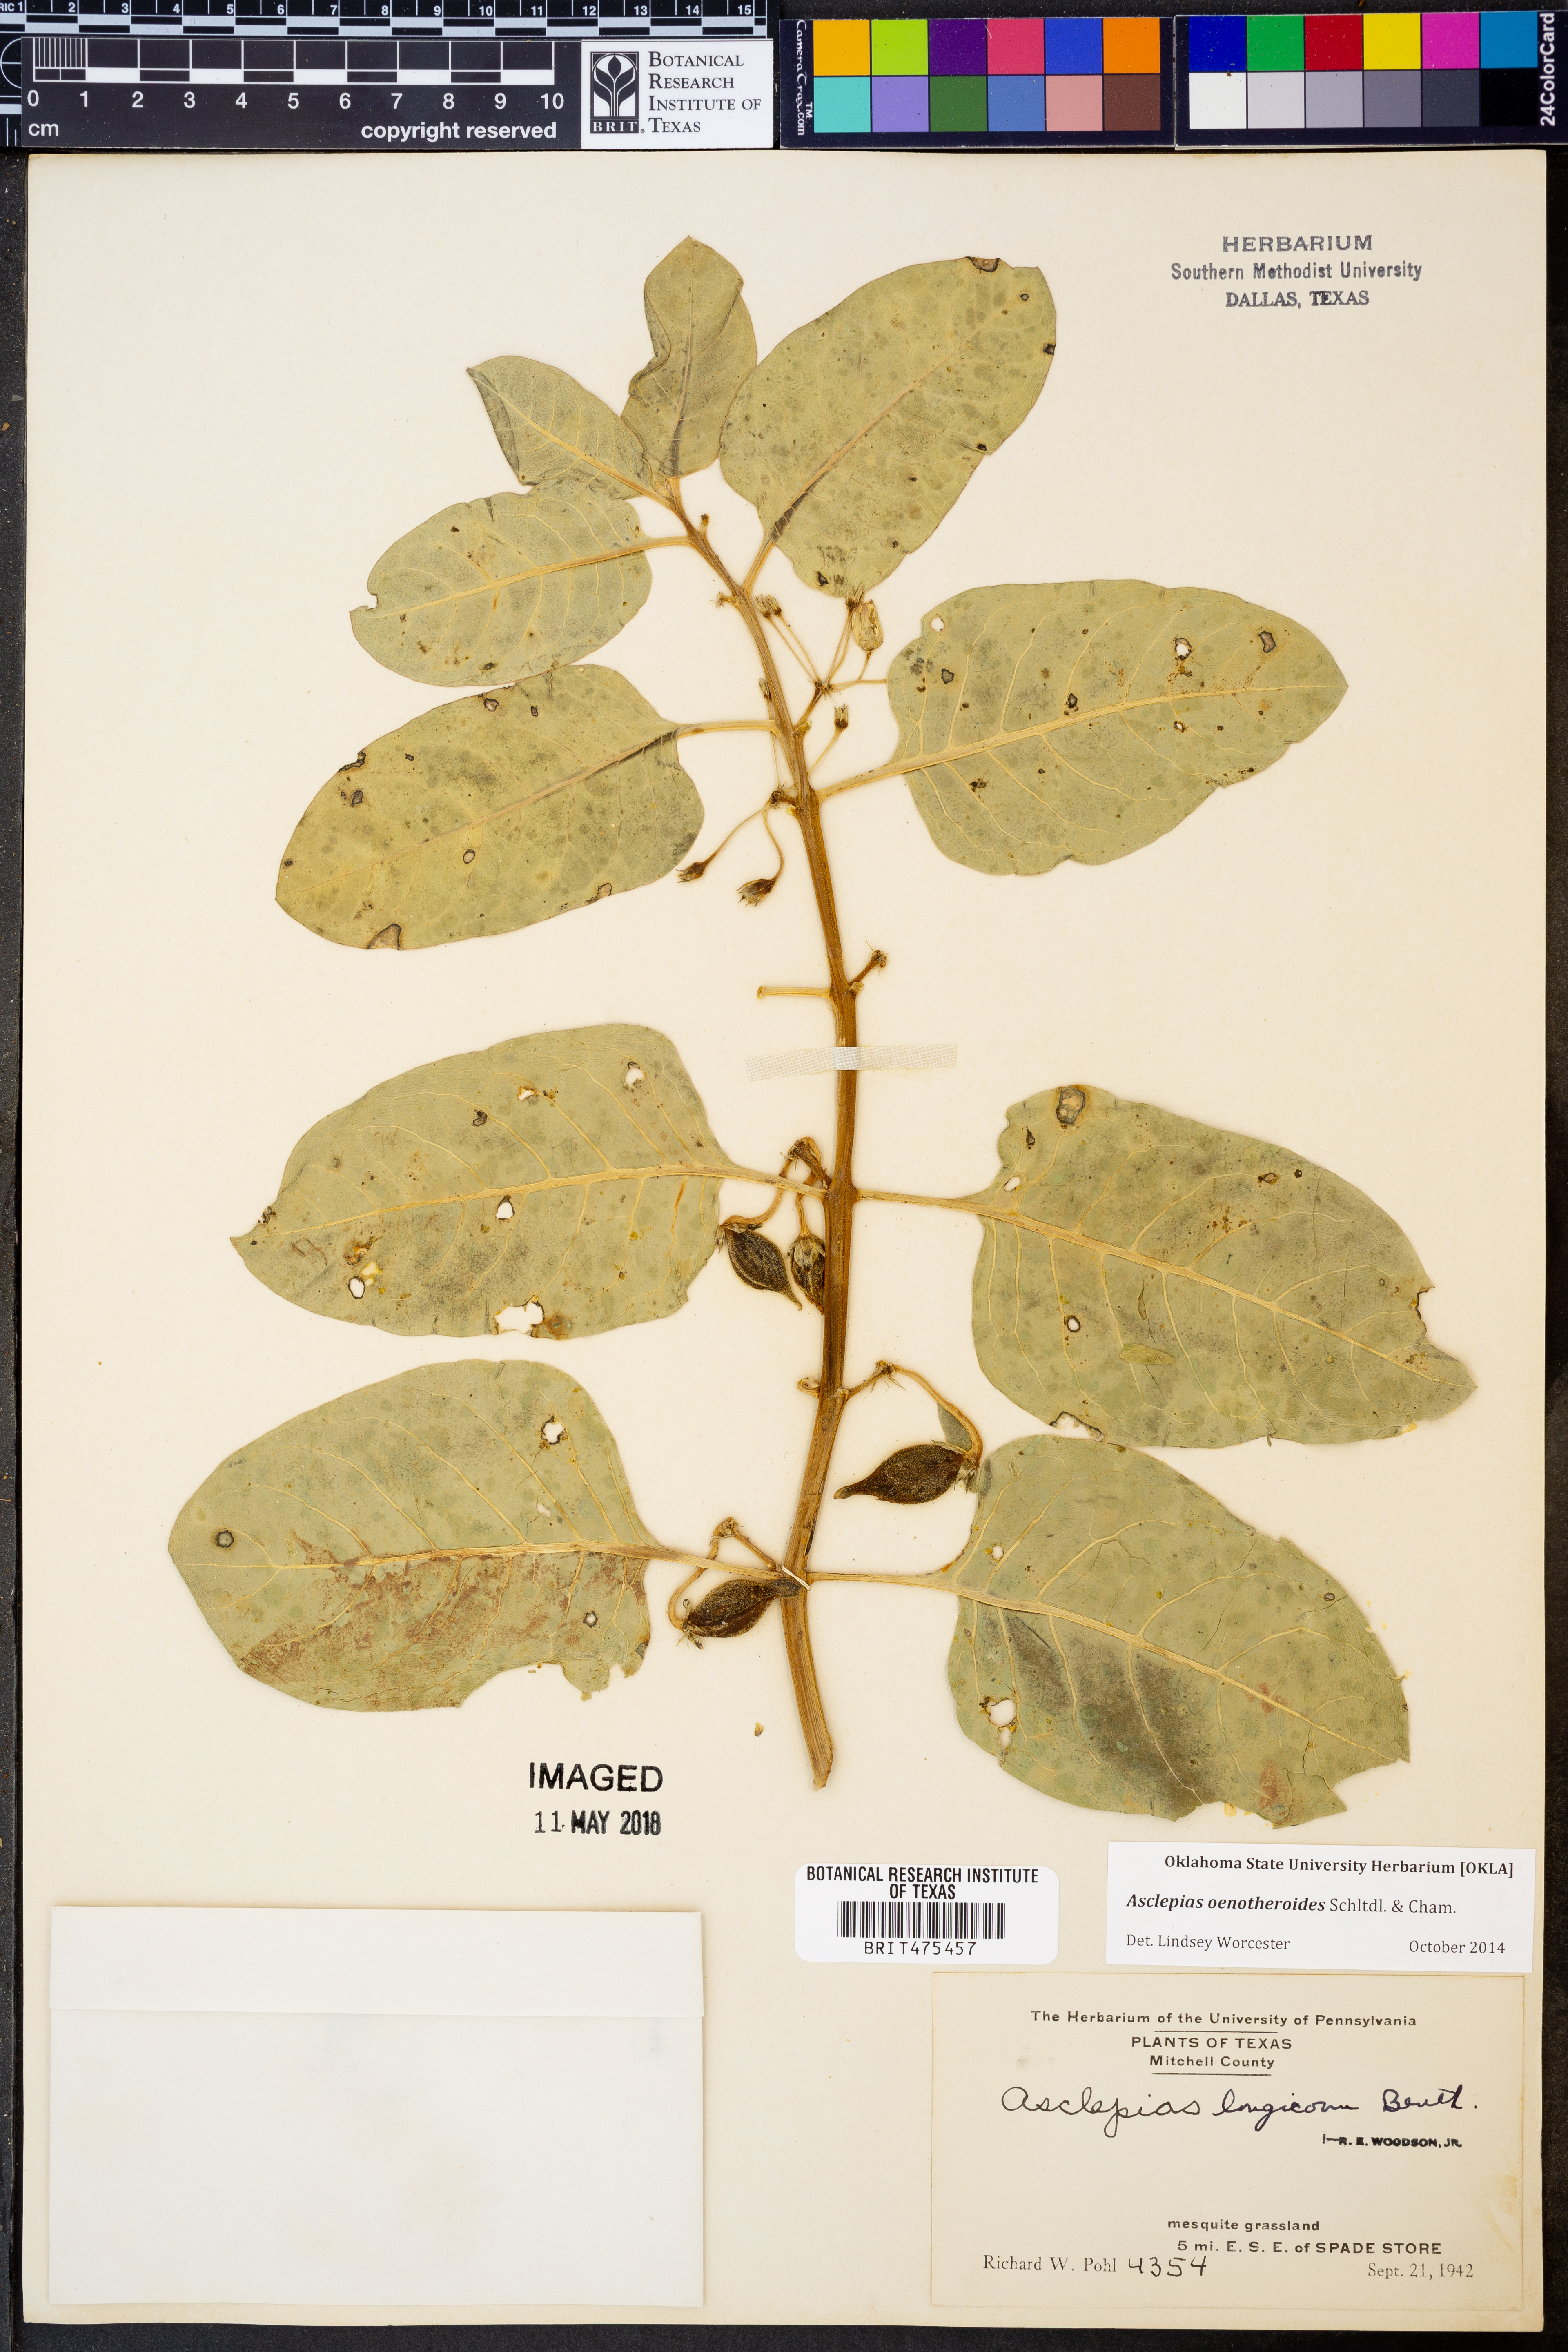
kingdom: Plantae
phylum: Tracheophyta
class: Magnoliopsida
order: Gentianales
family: Apocynaceae
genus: Asclepias
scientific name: Asclepias oenotheroides
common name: Zizotes milkweed
